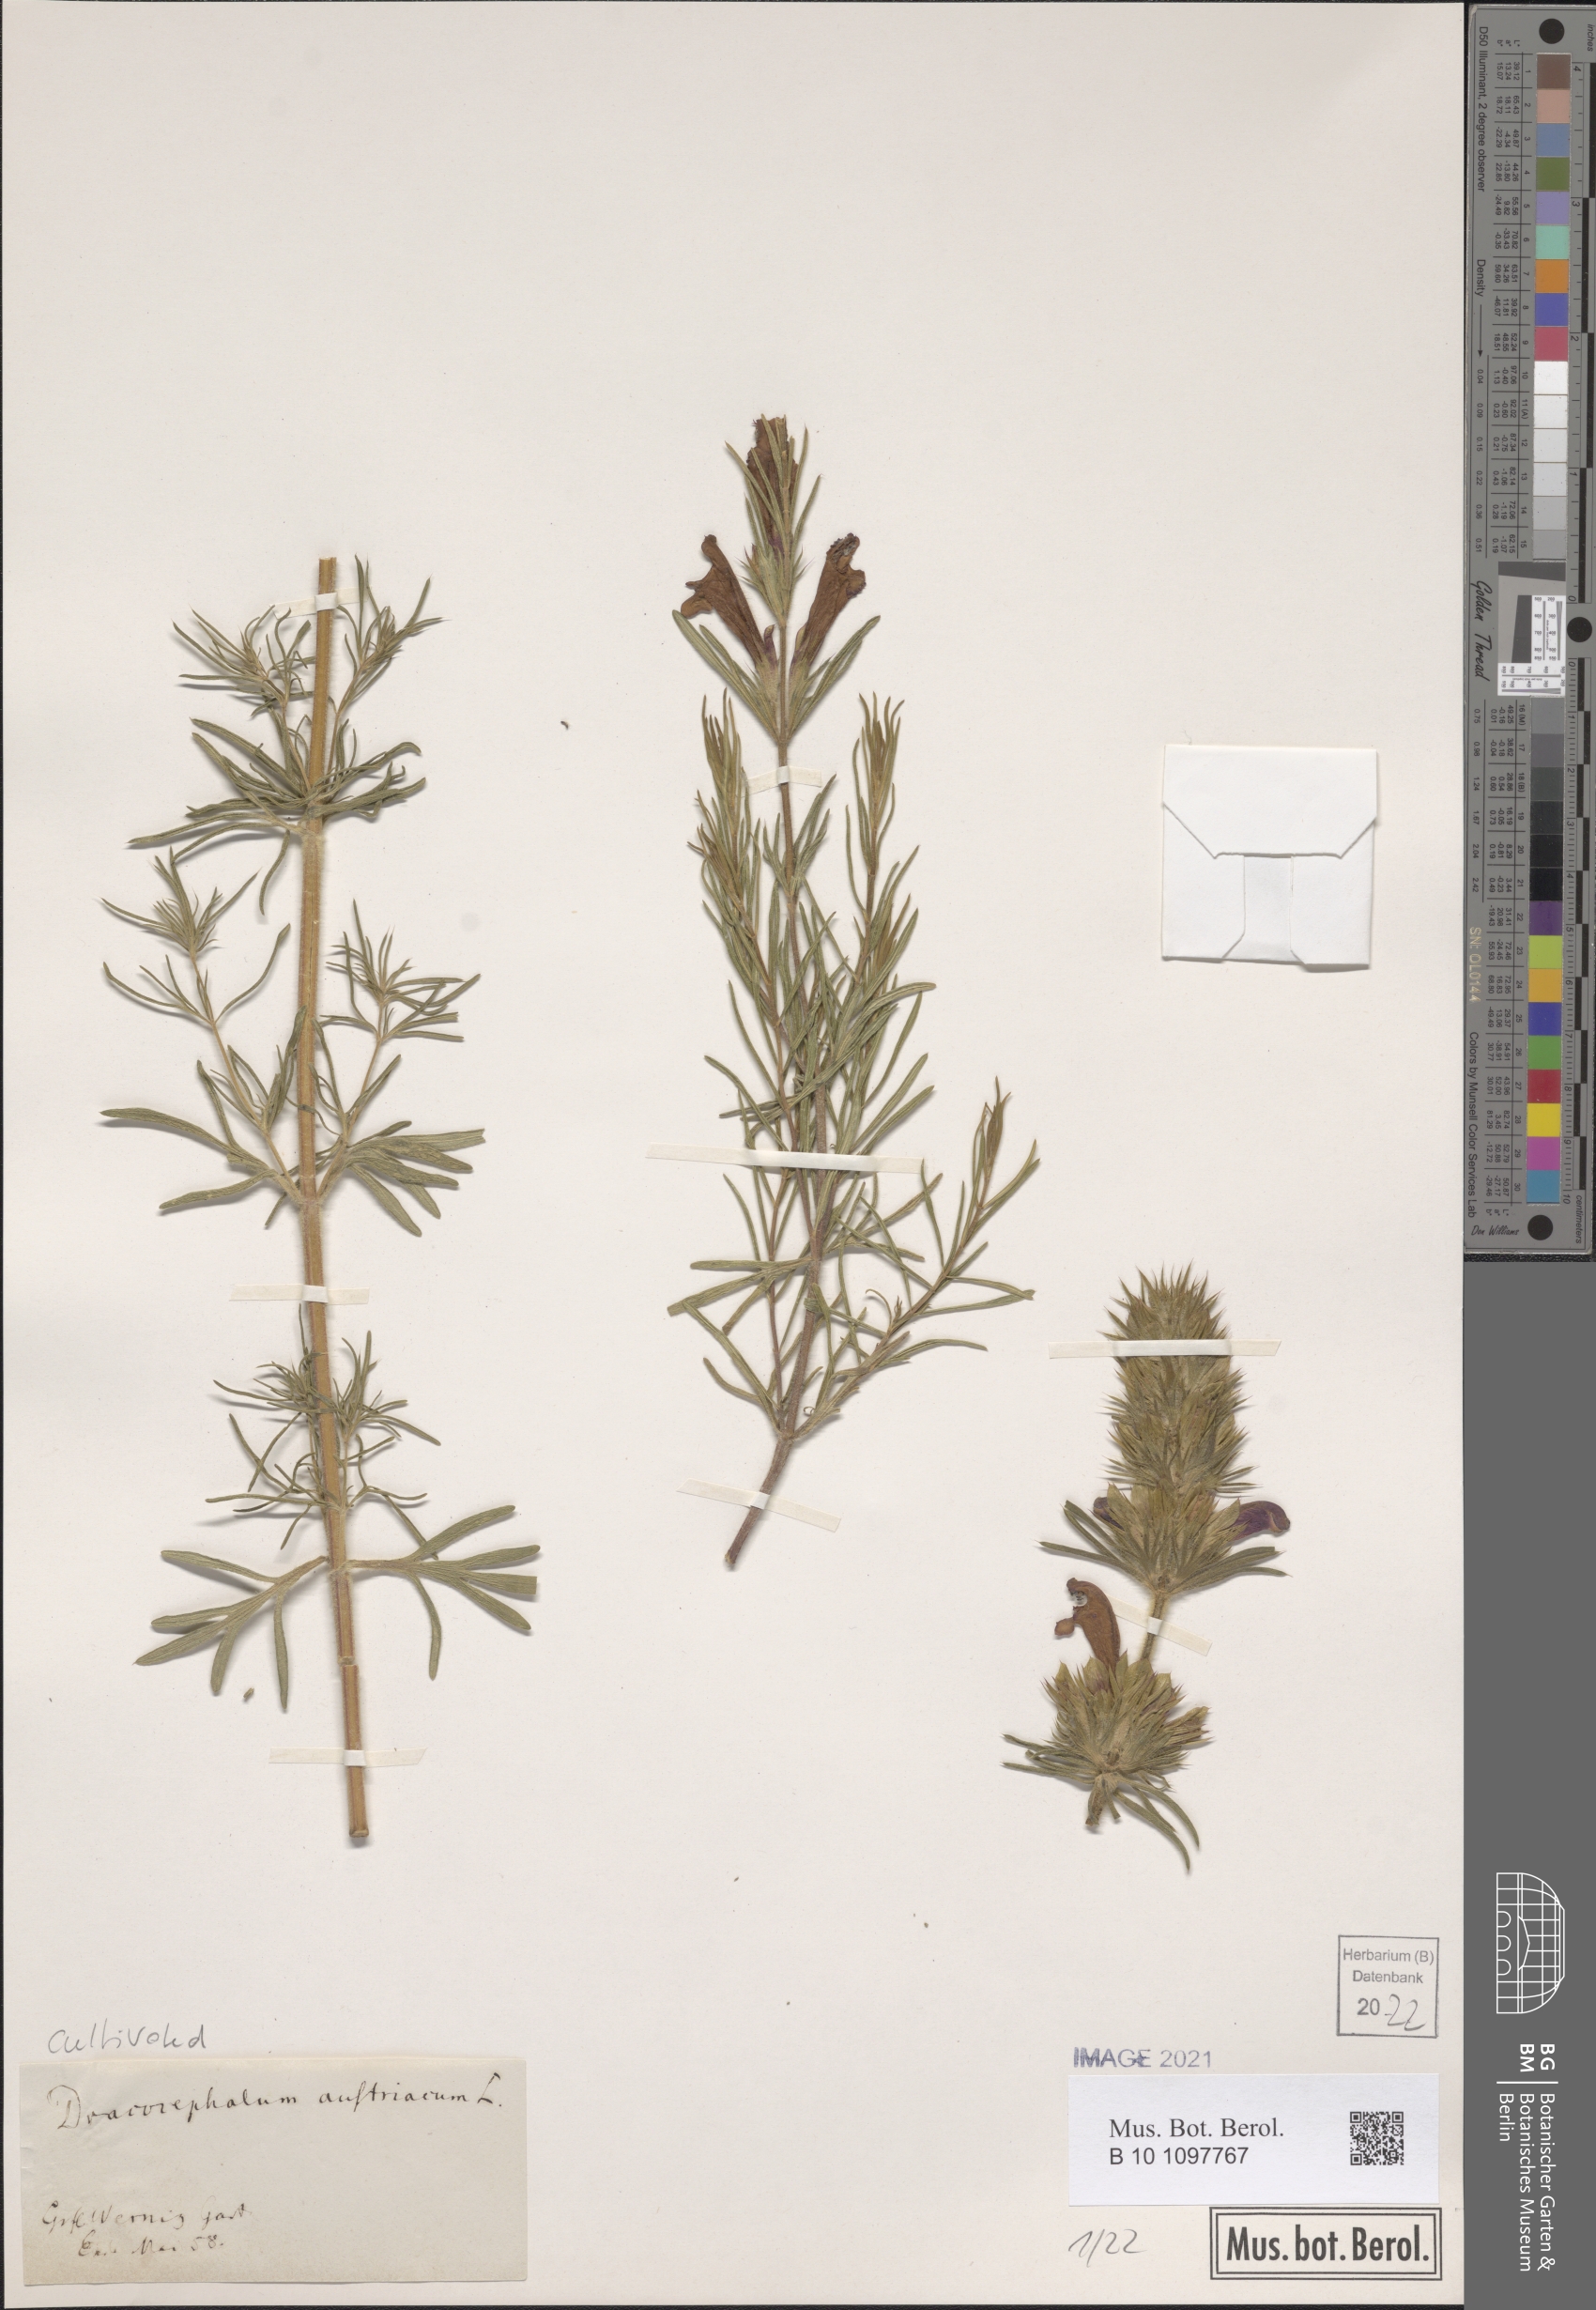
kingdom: Plantae
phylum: Tracheophyta
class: Magnoliopsida
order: Lamiales
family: Lamiaceae
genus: Dracocephalum
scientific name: Dracocephalum austriacum
